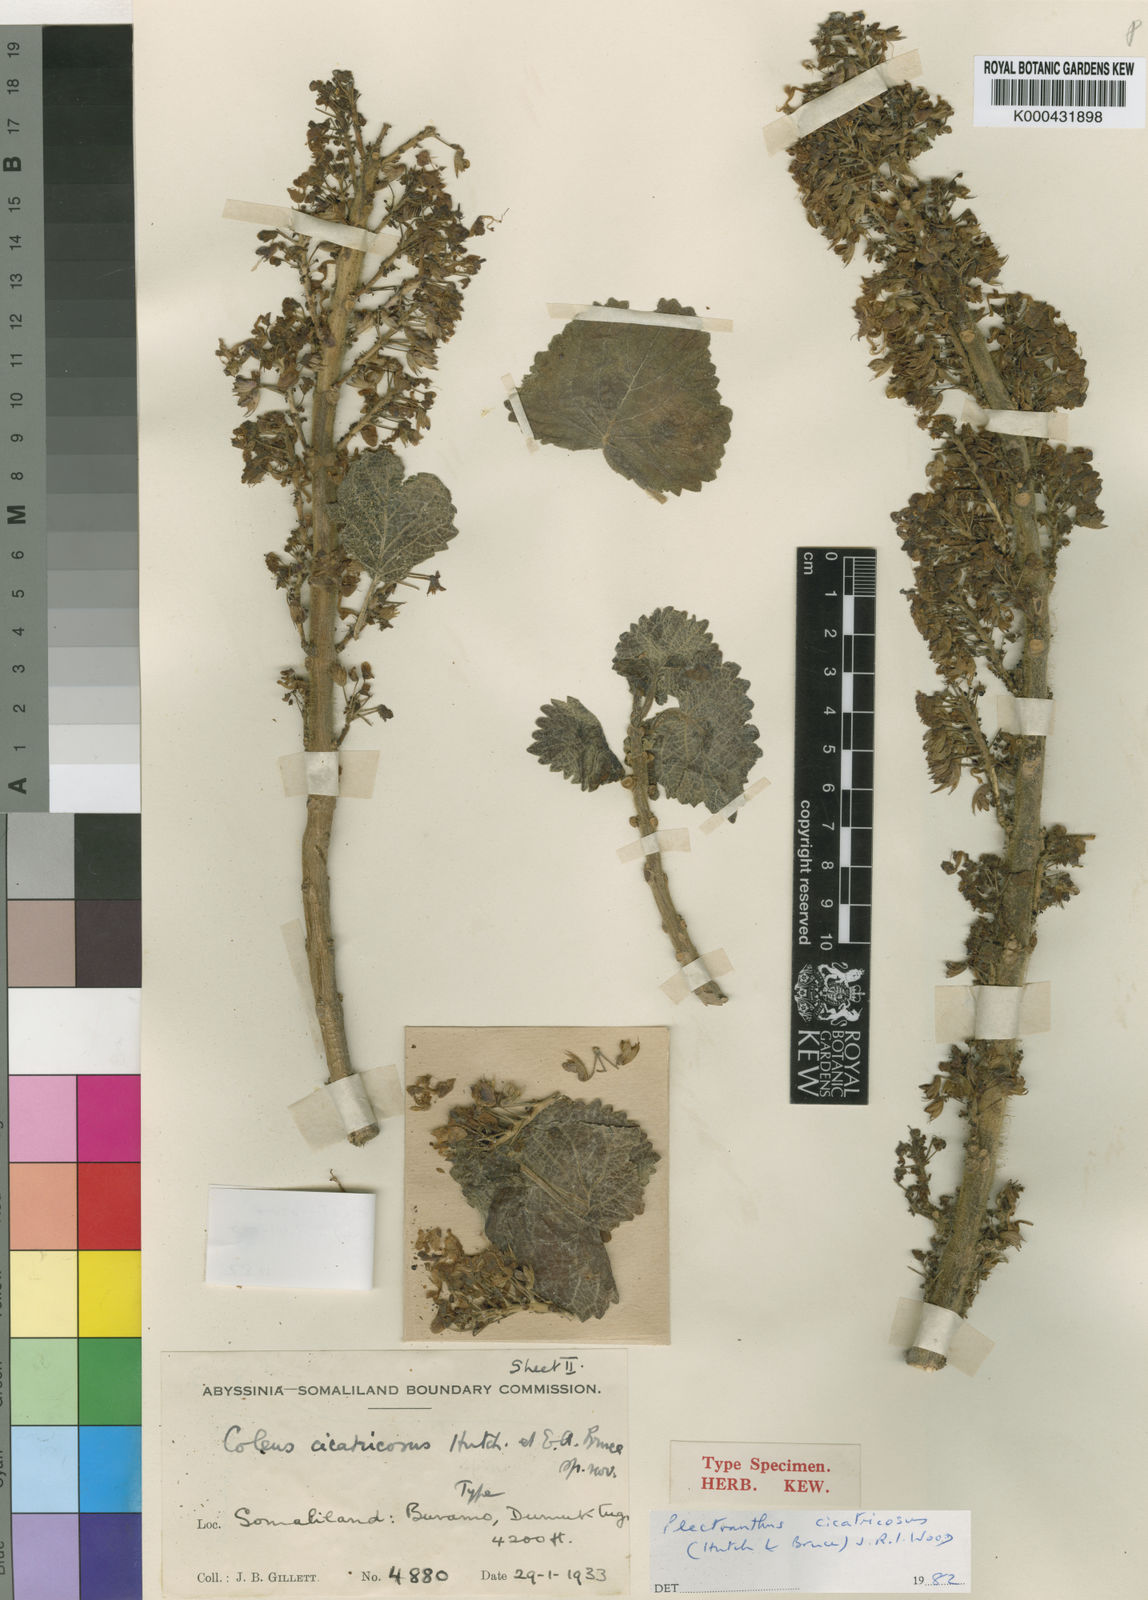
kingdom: Plantae
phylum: Tracheophyta
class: Magnoliopsida
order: Lamiales
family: Lamiaceae
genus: Coleus
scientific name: Coleus burorum
